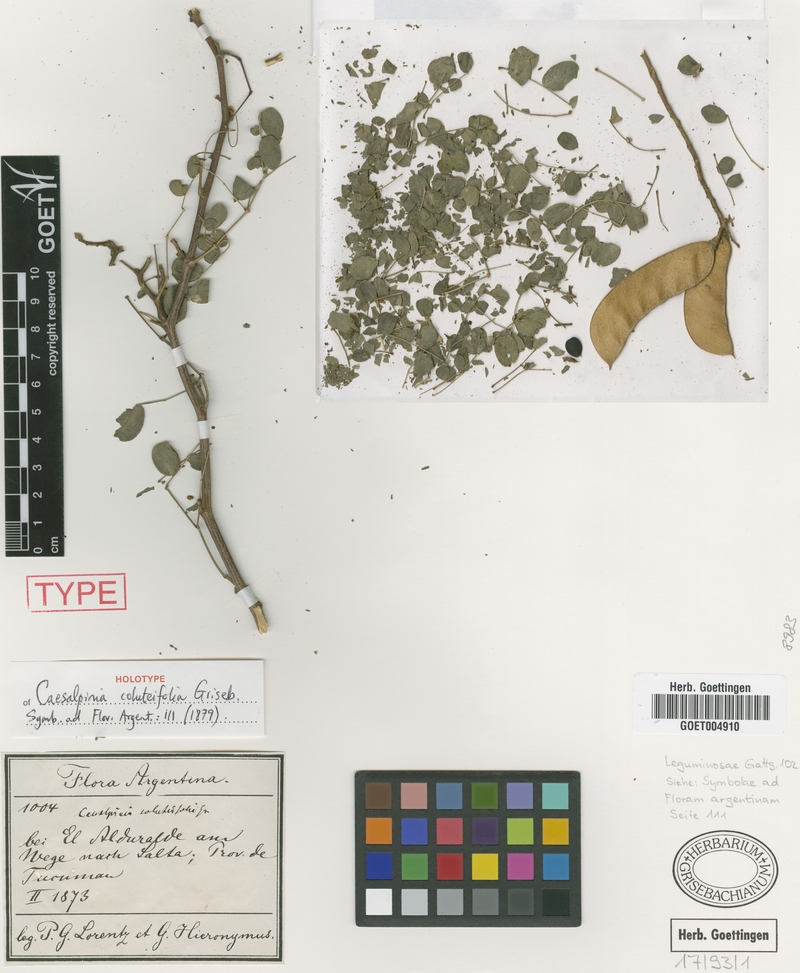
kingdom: Plantae
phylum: Tracheophyta
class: Magnoliopsida
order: Fabales
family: Fabaceae
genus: Erythrostemon
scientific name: Erythrostemon coluteifolius
